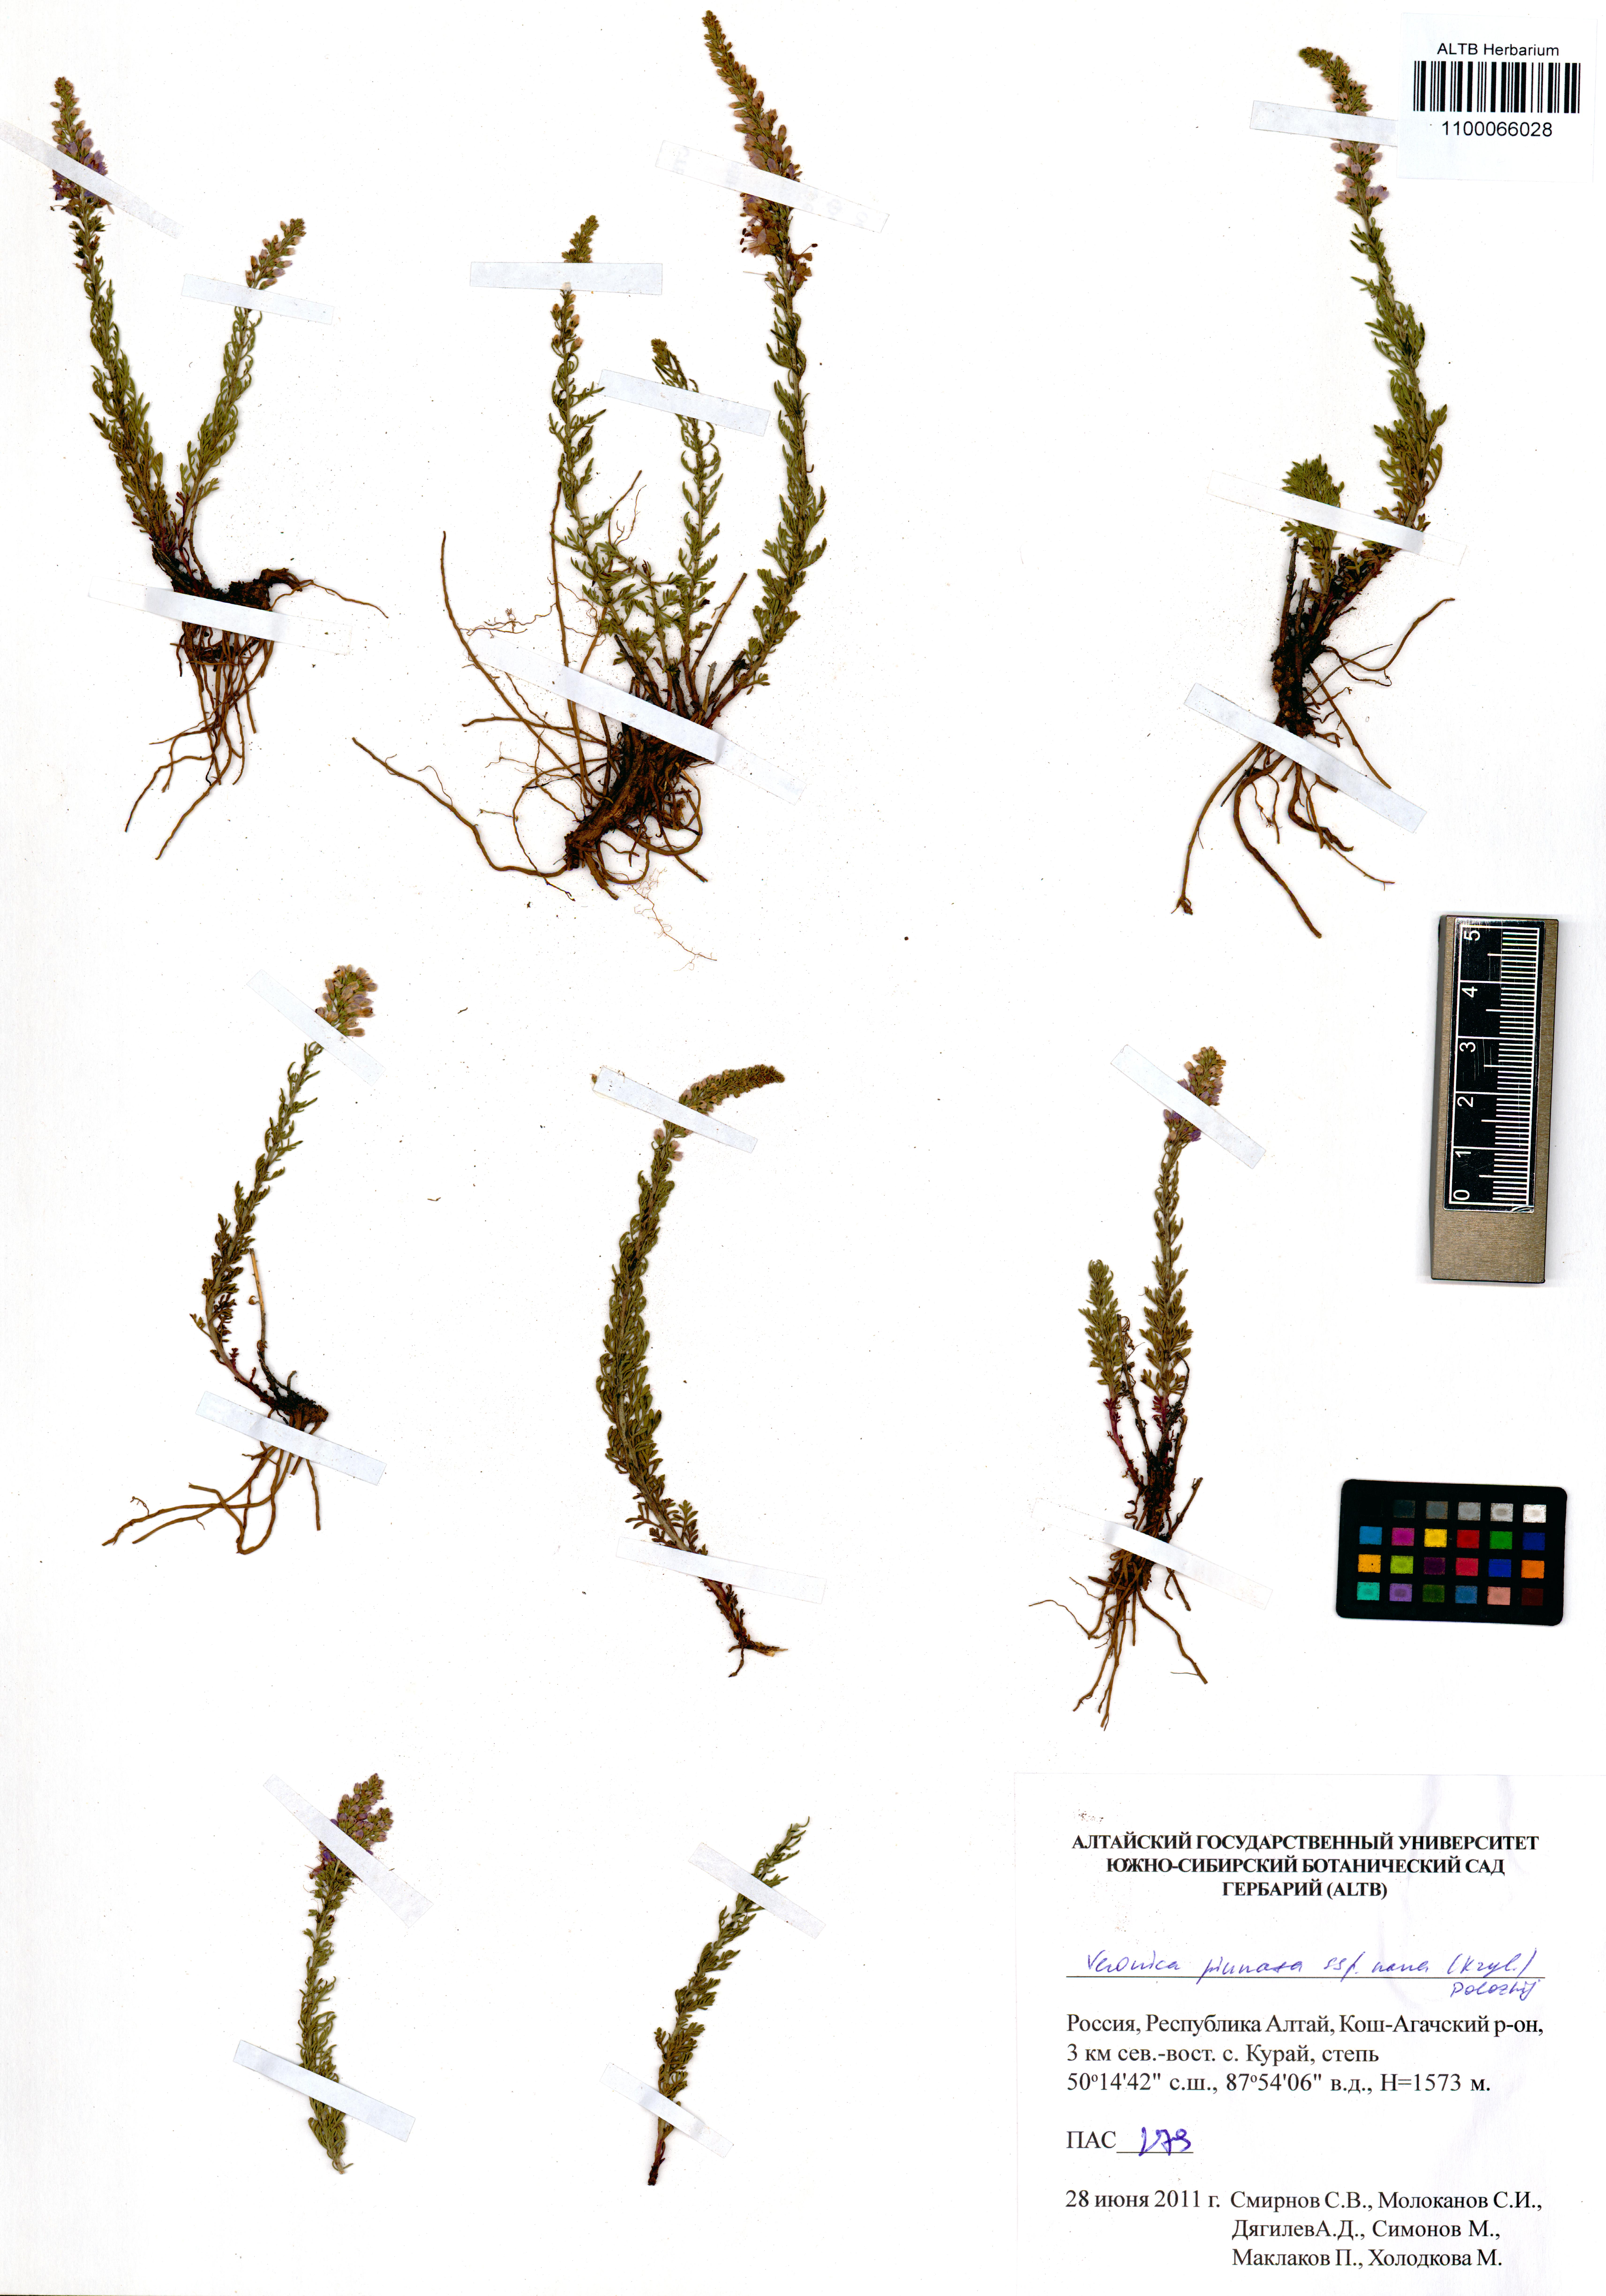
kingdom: Plantae
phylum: Tracheophyta
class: Magnoliopsida
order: Lamiales
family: Plantaginaceae
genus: Veronica
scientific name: Veronica pinnata
